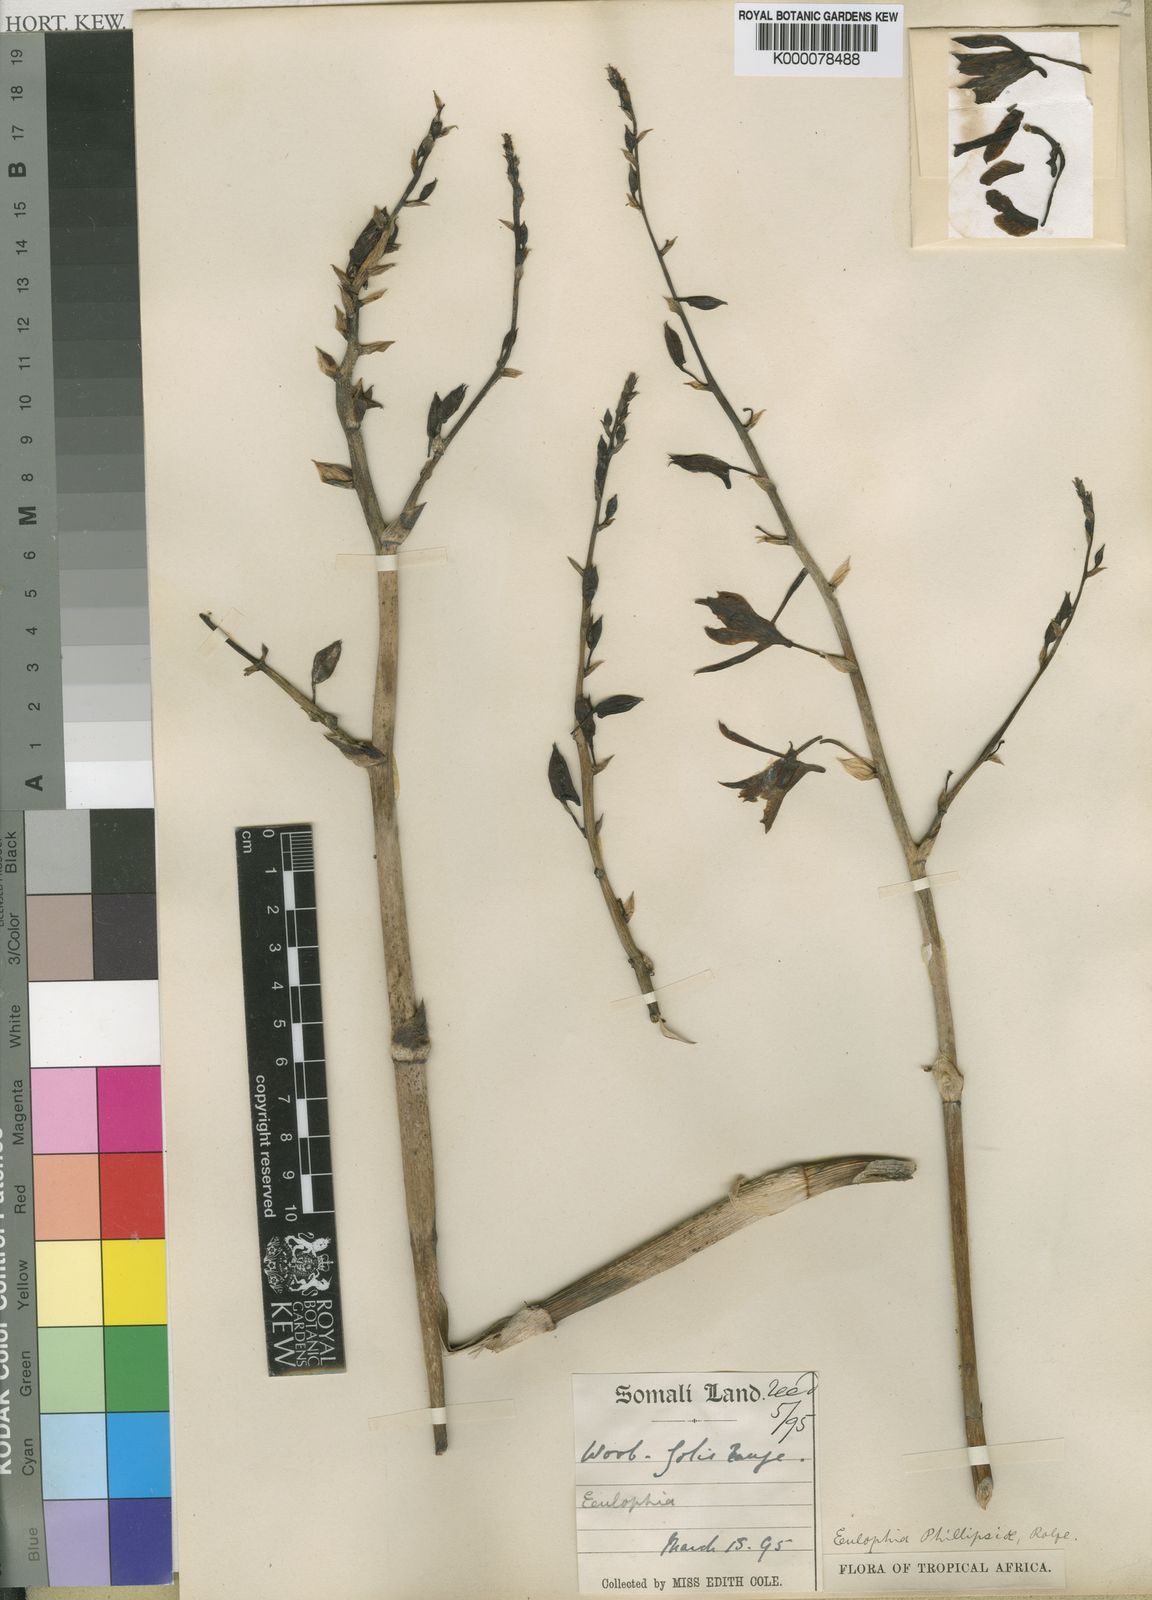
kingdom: Plantae
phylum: Tracheophyta
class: Liliopsida
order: Asparagales
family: Orchidaceae
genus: Eulophia
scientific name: Eulophia petersii
